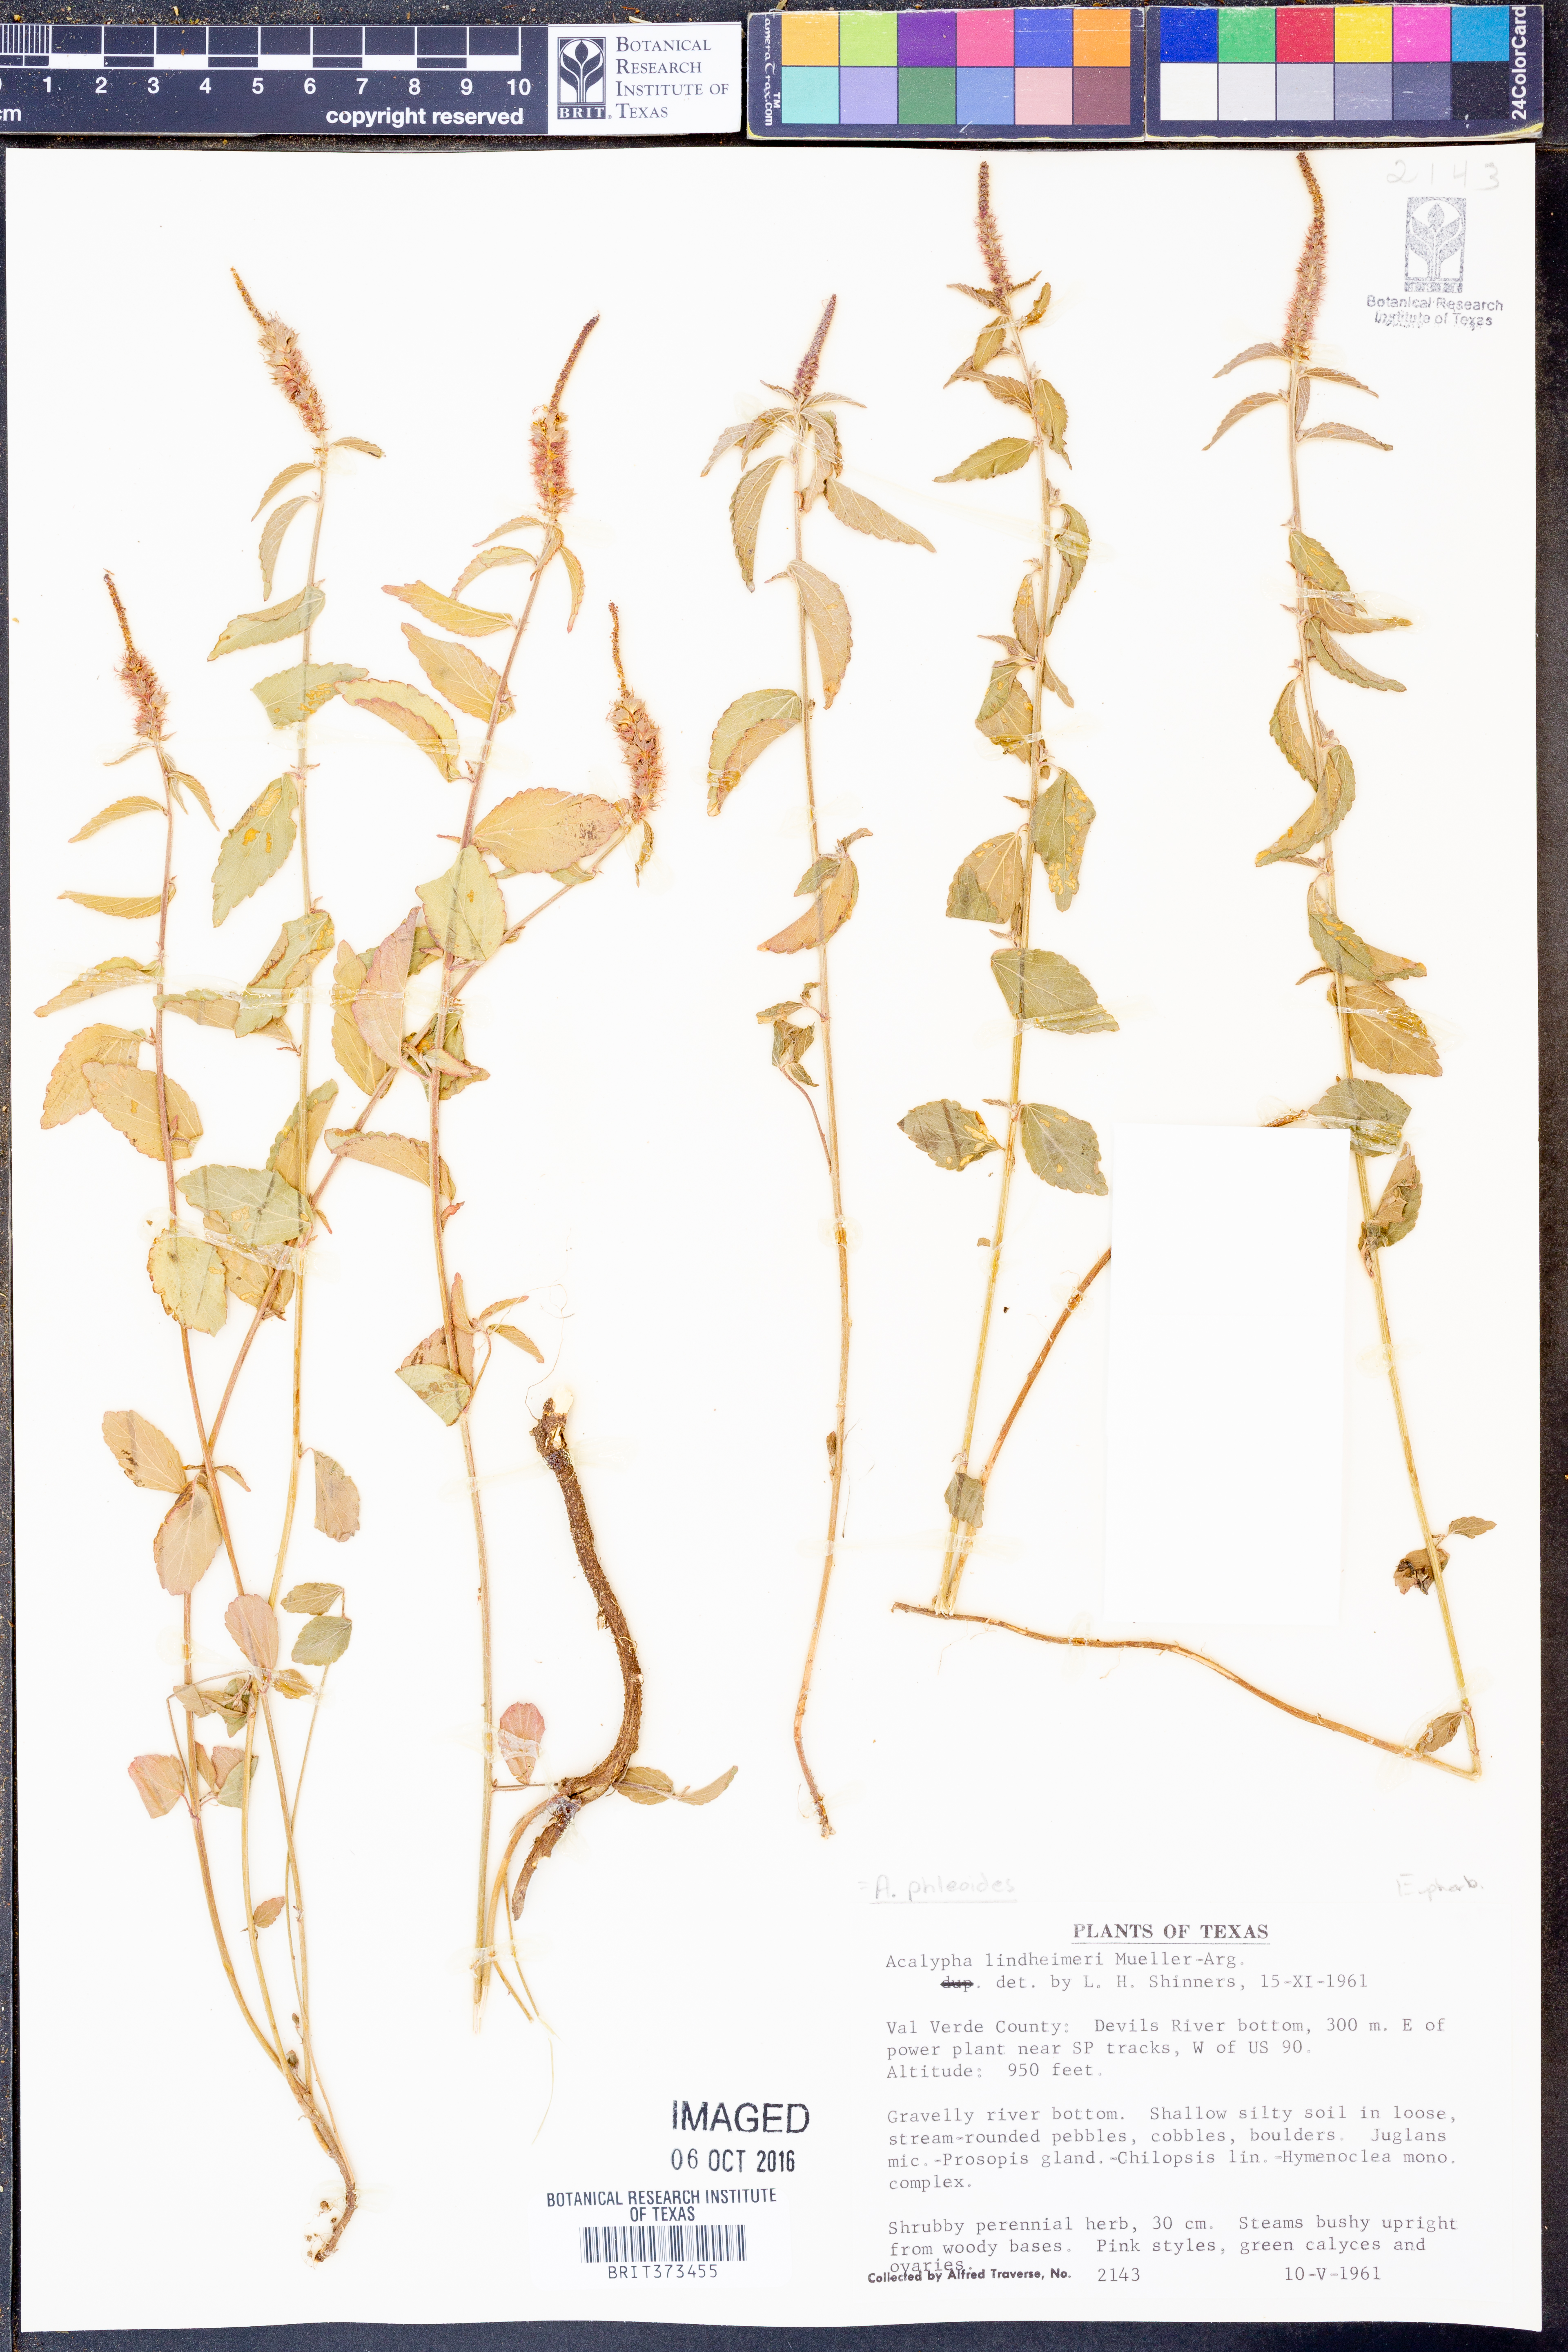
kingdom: Plantae
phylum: Tracheophyta
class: Magnoliopsida
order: Malpighiales
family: Euphorbiaceae
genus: Acalypha
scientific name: Acalypha phleoides
